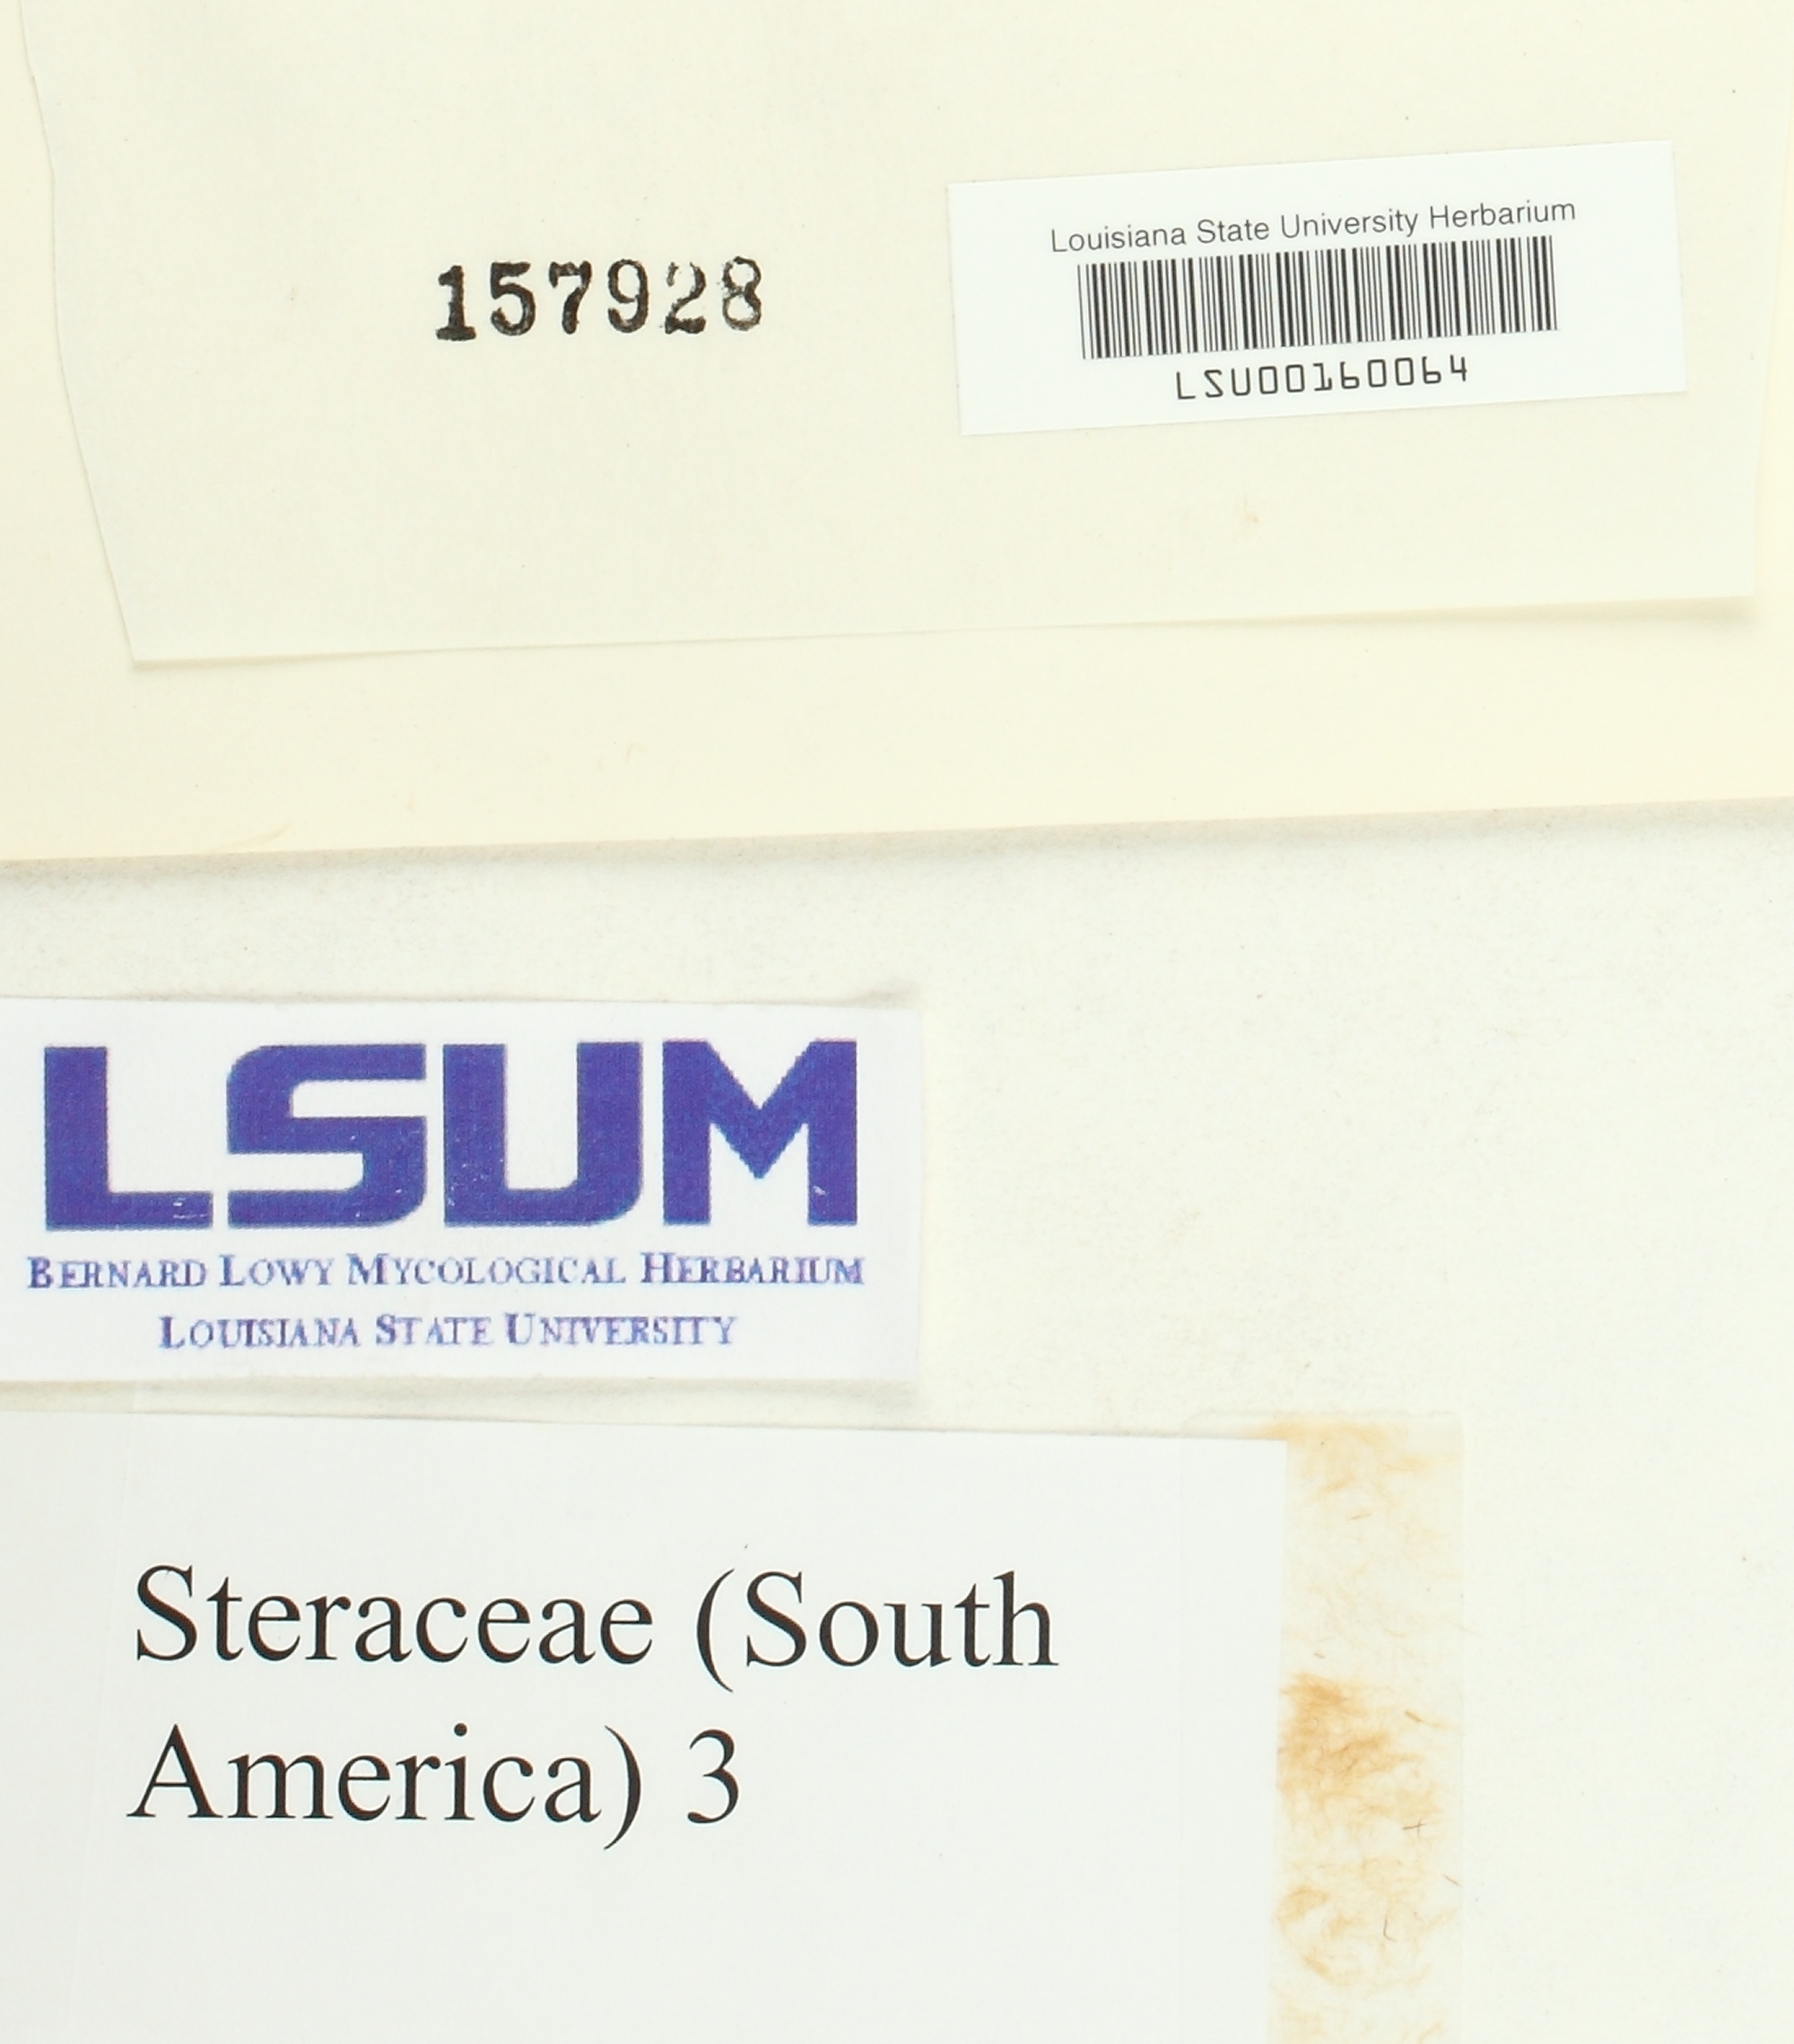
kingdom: Fungi
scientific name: Fungi
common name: Fungi
